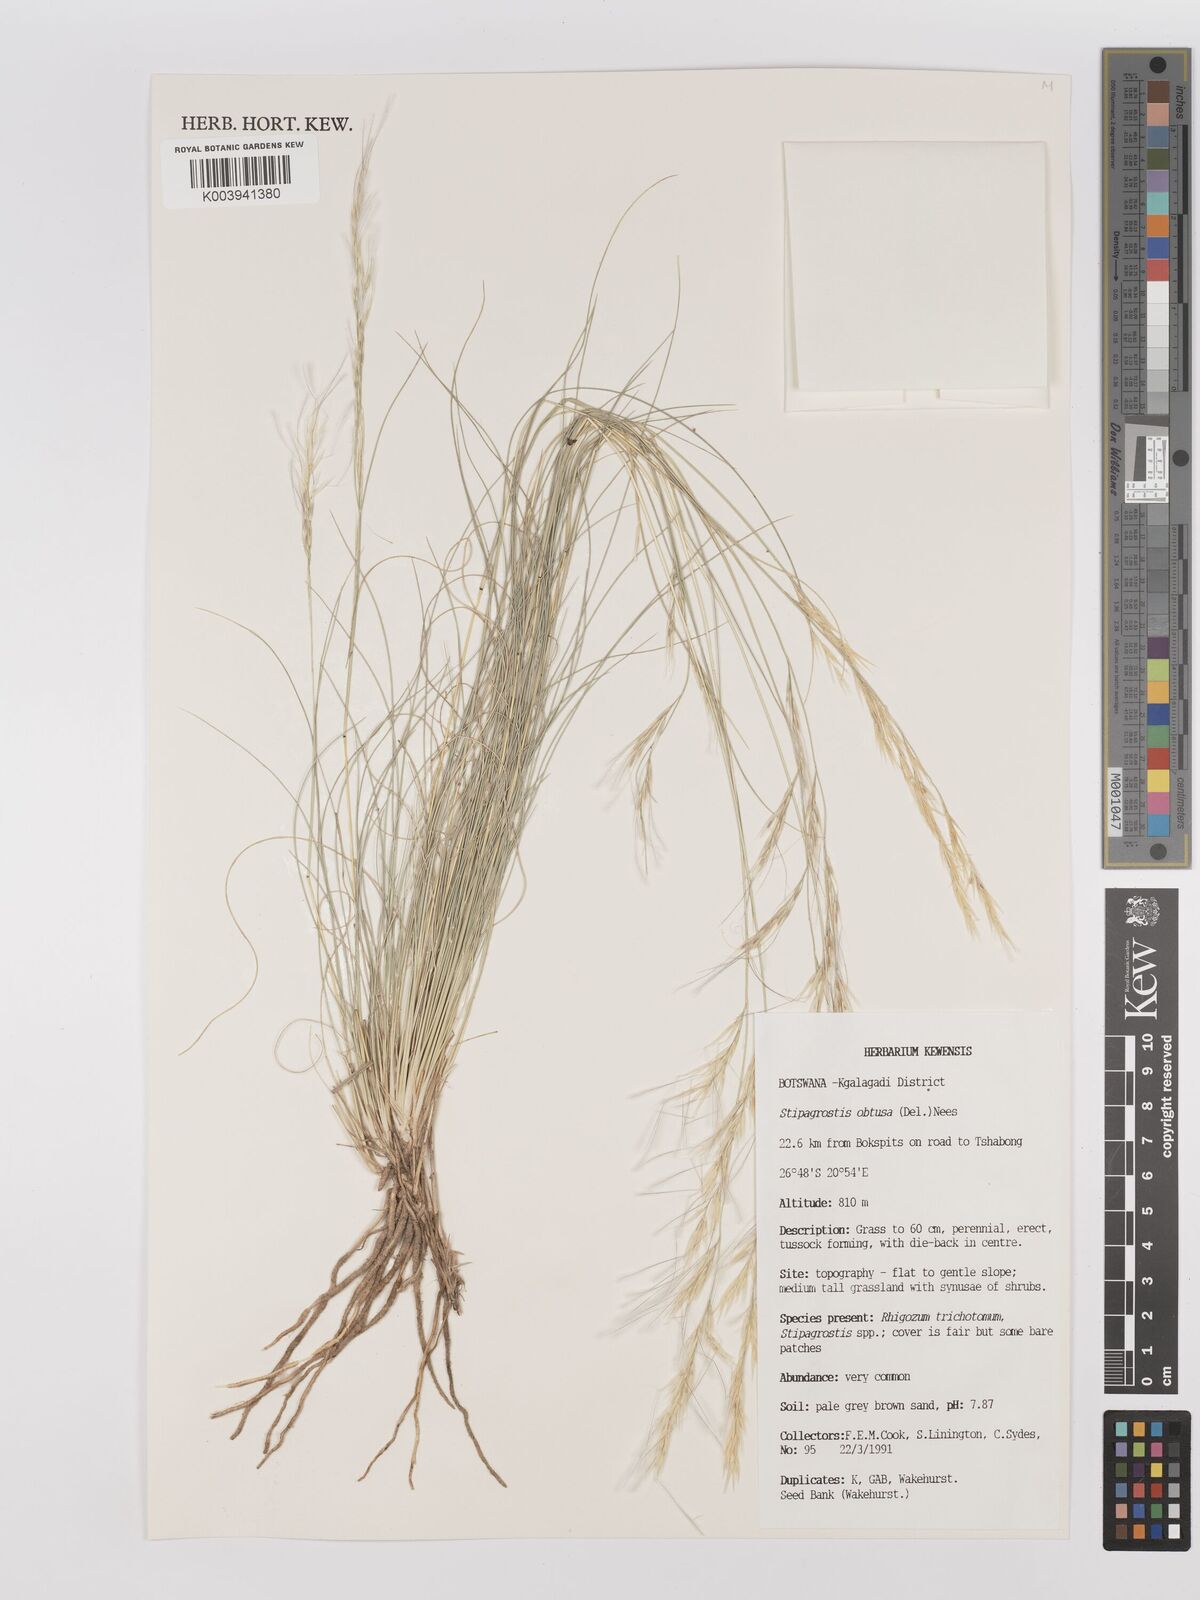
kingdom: Plantae
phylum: Tracheophyta
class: Liliopsida
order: Poales
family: Poaceae
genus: Stipagrostis
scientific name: Stipagrostis obtusa
